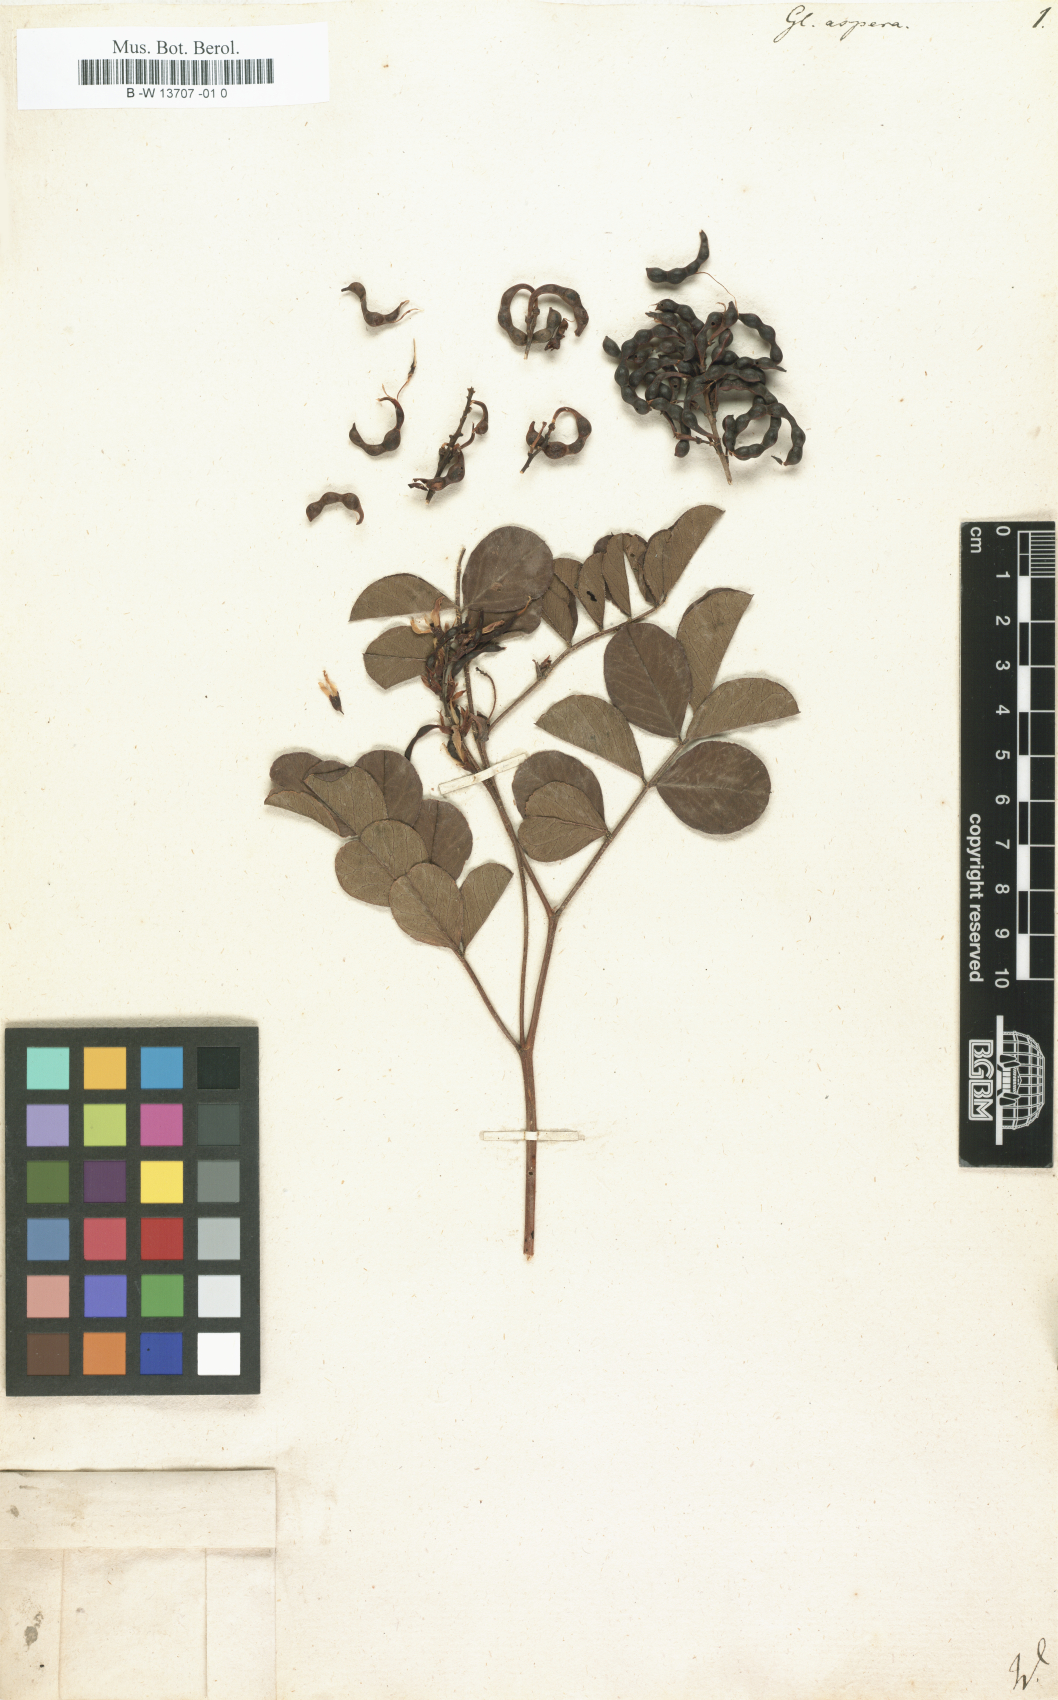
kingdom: Plantae
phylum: Tracheophyta
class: Magnoliopsida
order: Fabales
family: Fabaceae
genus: Glycyrrhiza
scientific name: Glycyrrhiza aspera
